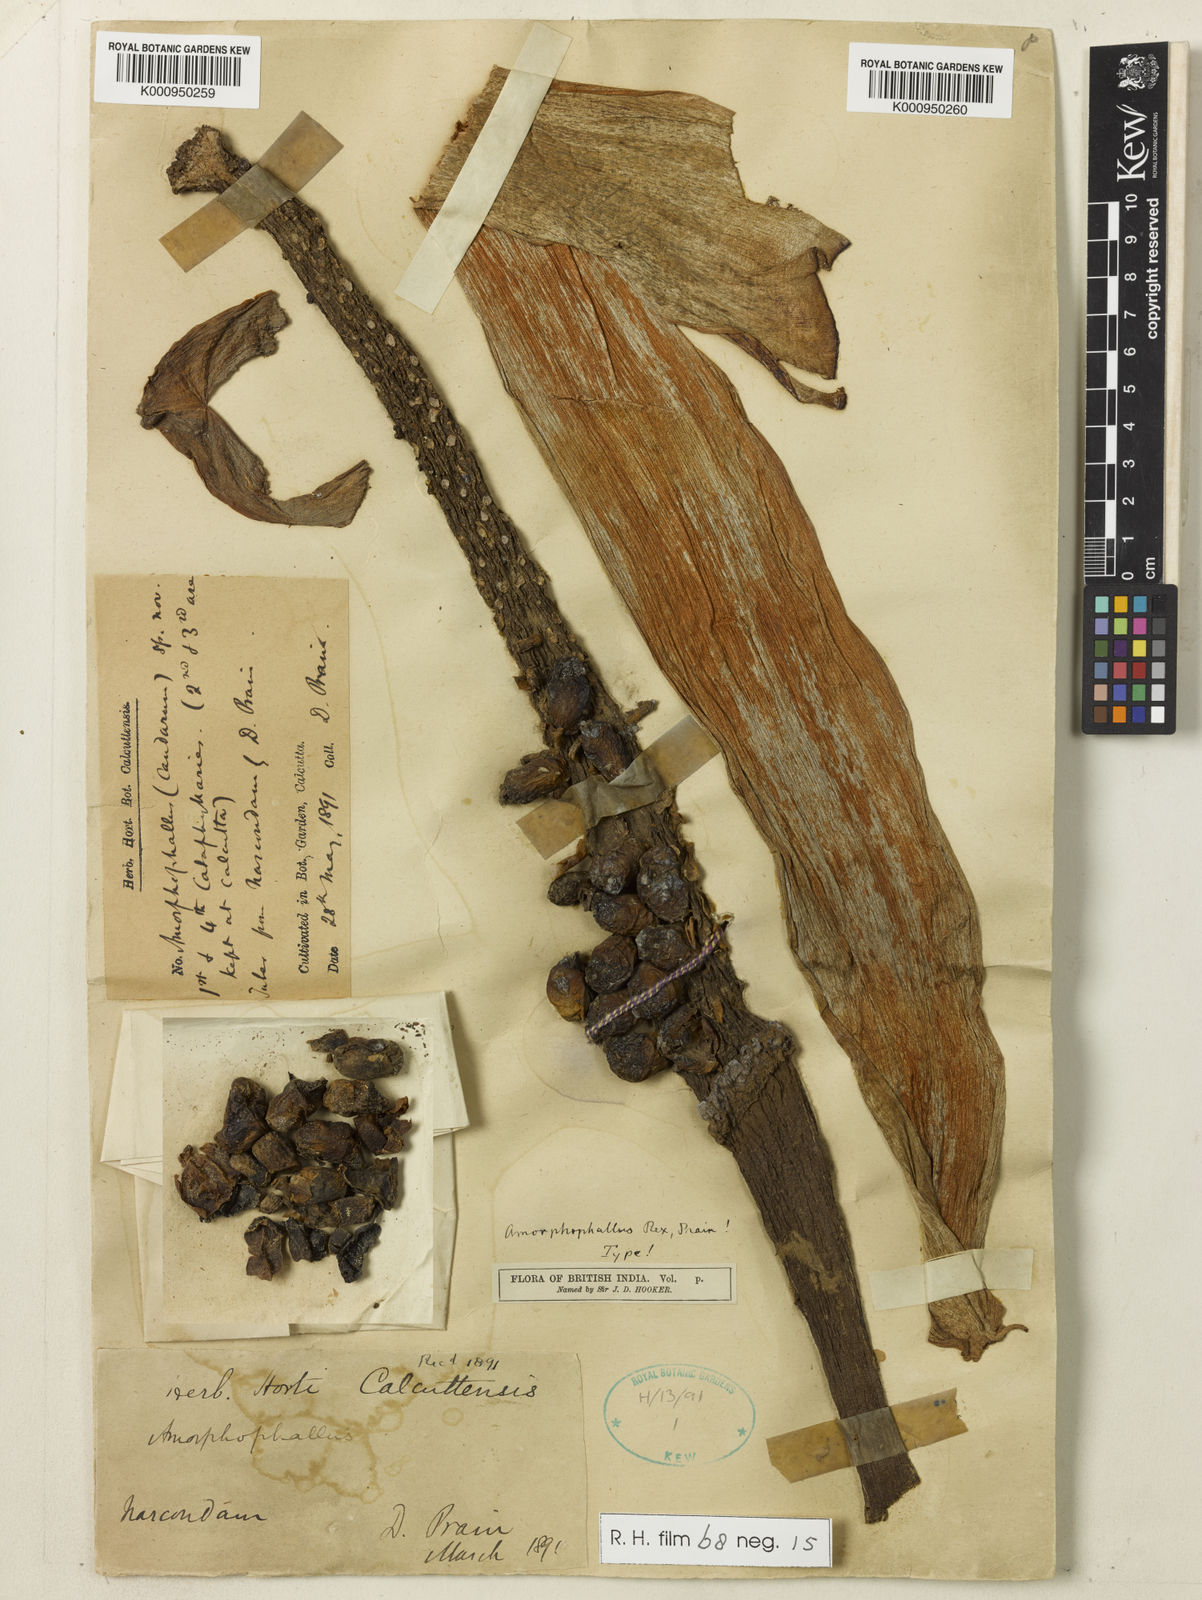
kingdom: Plantae
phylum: Tracheophyta
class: Liliopsida
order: Alismatales
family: Araceae
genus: Amorphophallus
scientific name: Amorphophallus paeoniifolius
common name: Telinga-potato
